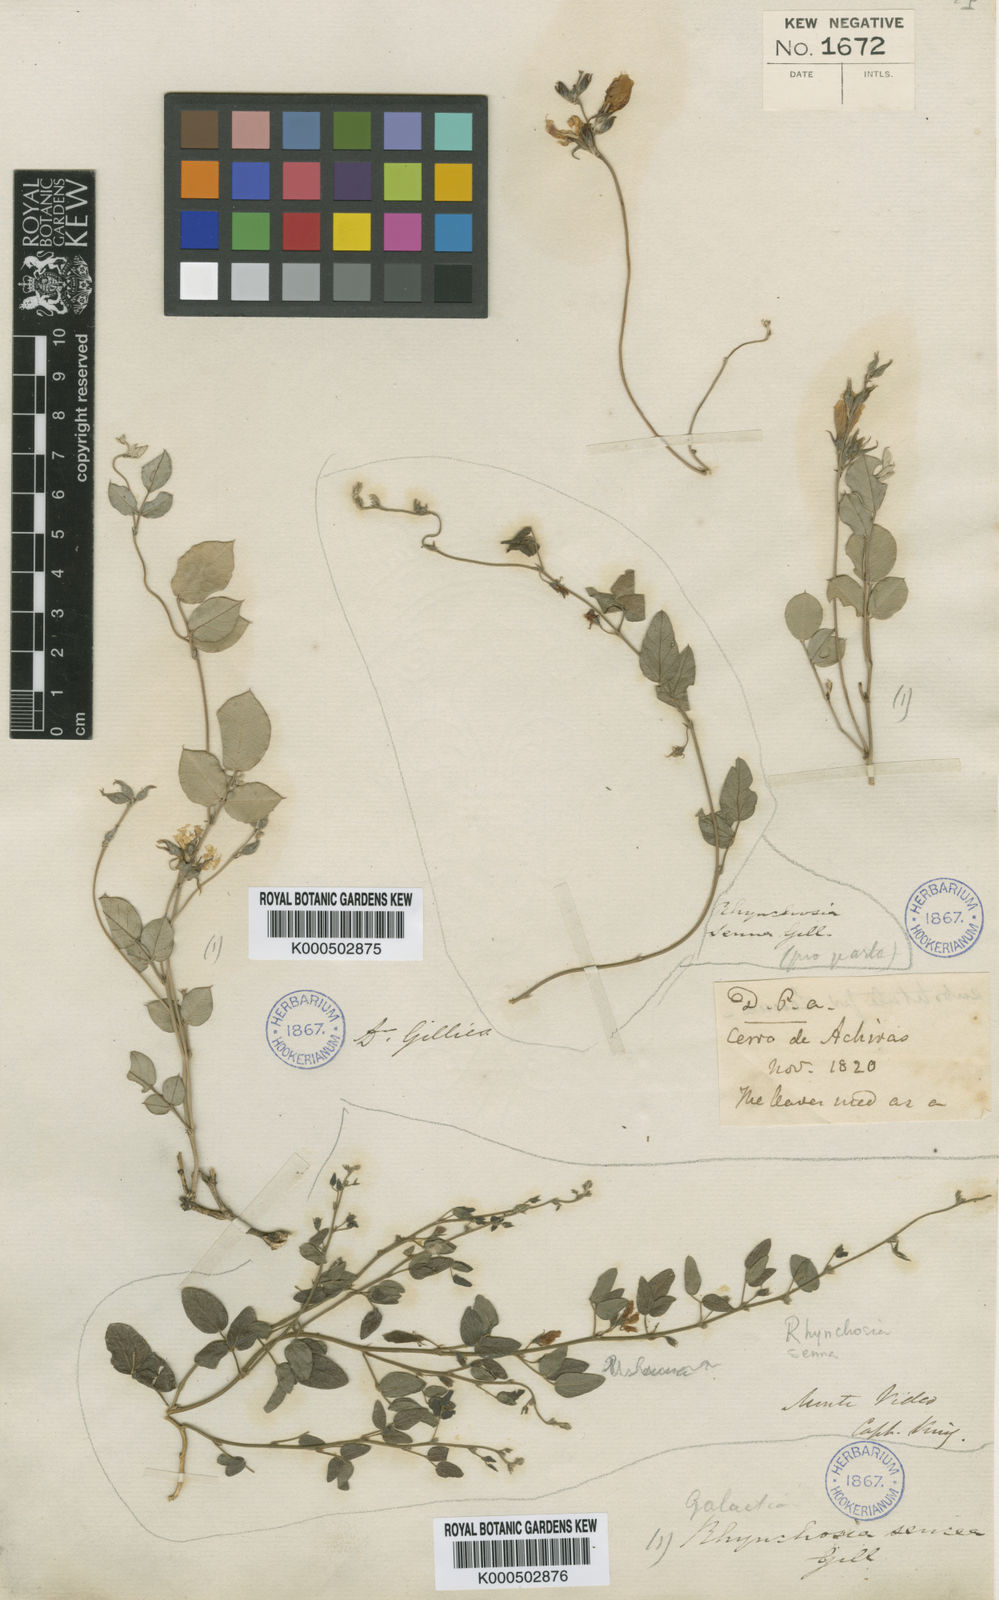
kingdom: Plantae
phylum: Tracheophyta
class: Magnoliopsida
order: Fabales
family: Fabaceae
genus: Galactia
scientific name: Galactia striata
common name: Florida hammock milkpea
